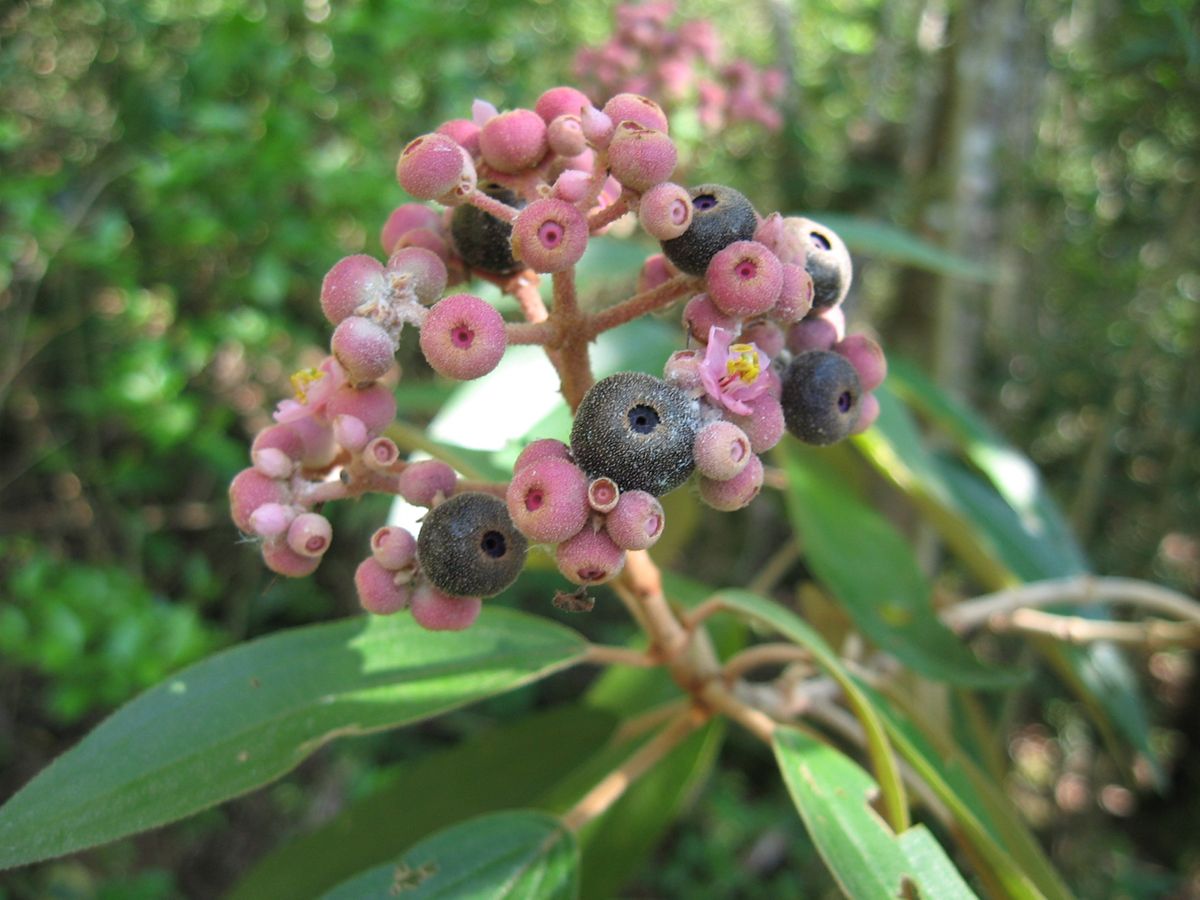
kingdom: Plantae
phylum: Tracheophyta
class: Magnoliopsida
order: Myrtales
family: Melastomataceae
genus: Miconia
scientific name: Miconia xalapensis
